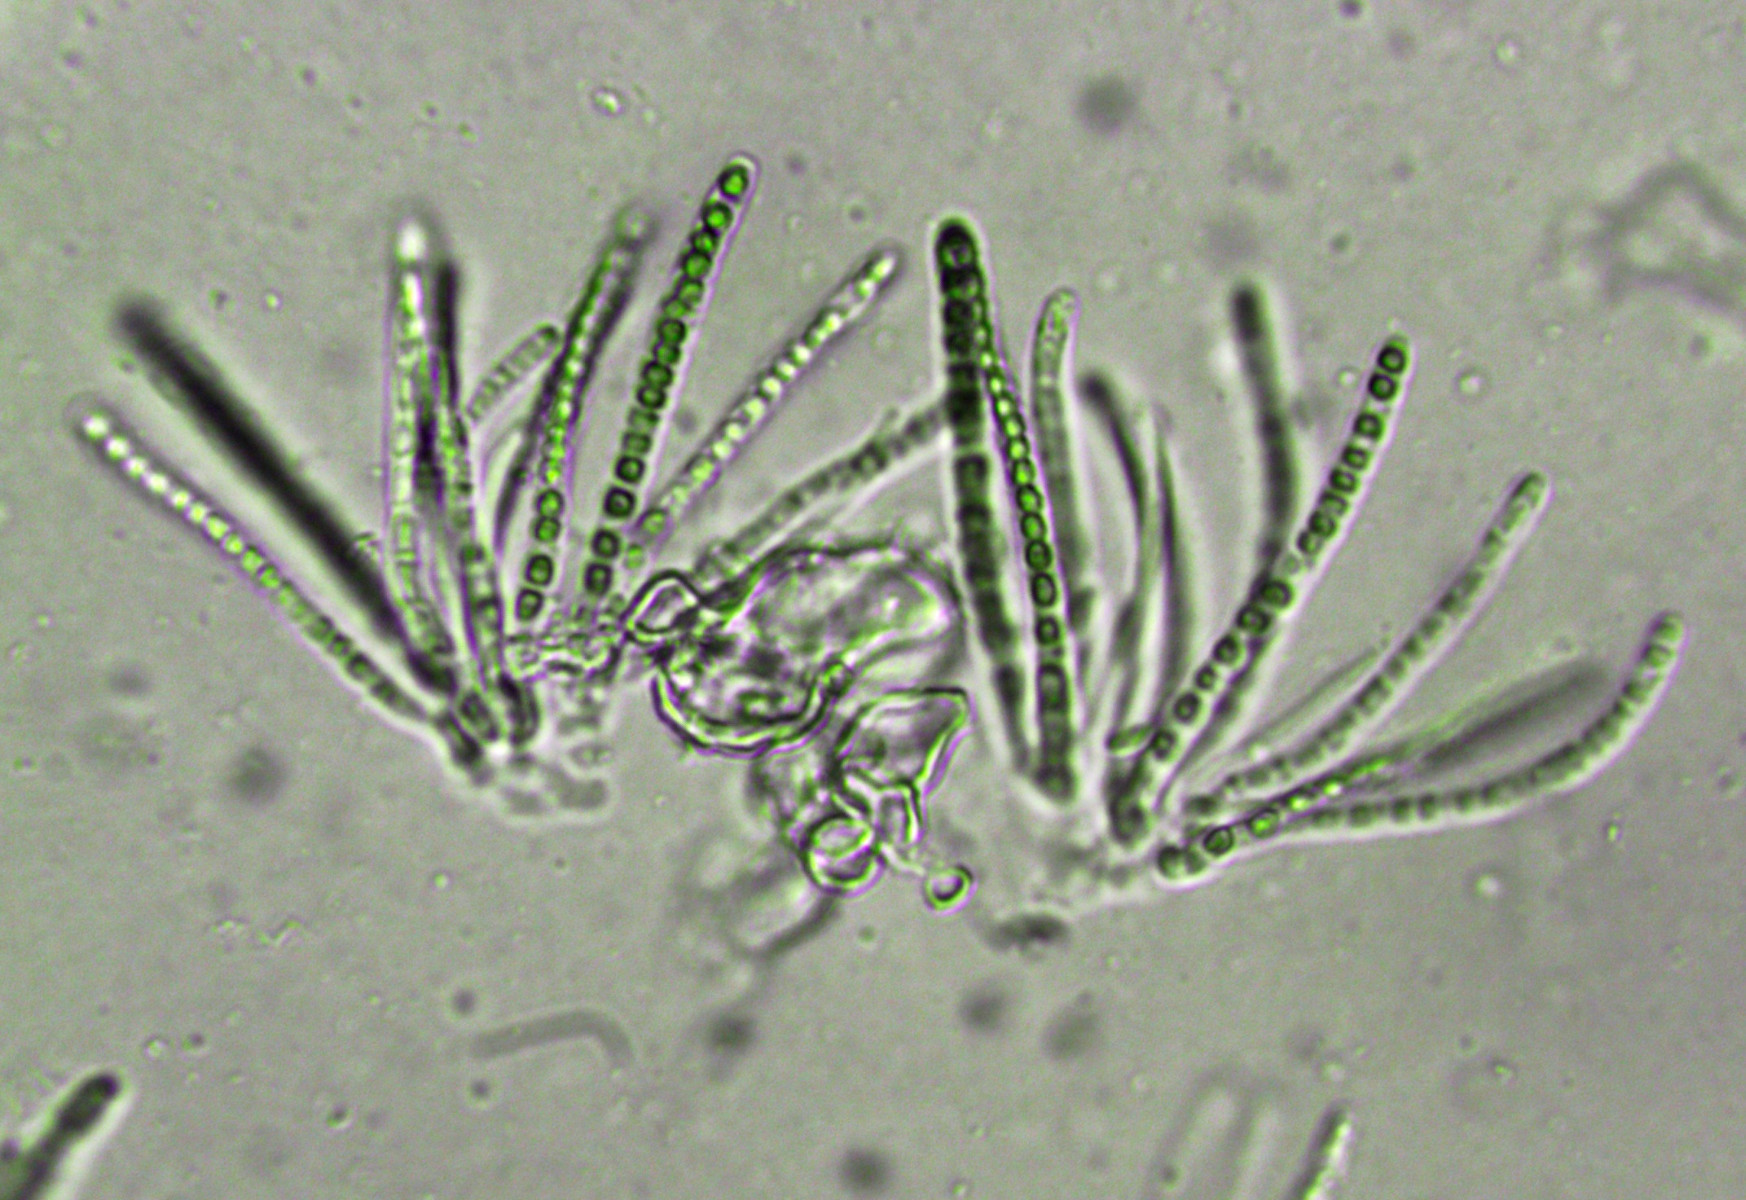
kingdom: Fungi
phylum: Ascomycota
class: Sordariomycetes
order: Hypocreales
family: Hypocreaceae
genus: Trichoderma
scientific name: Trichoderma aureoviride
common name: æggegul kødkerne
